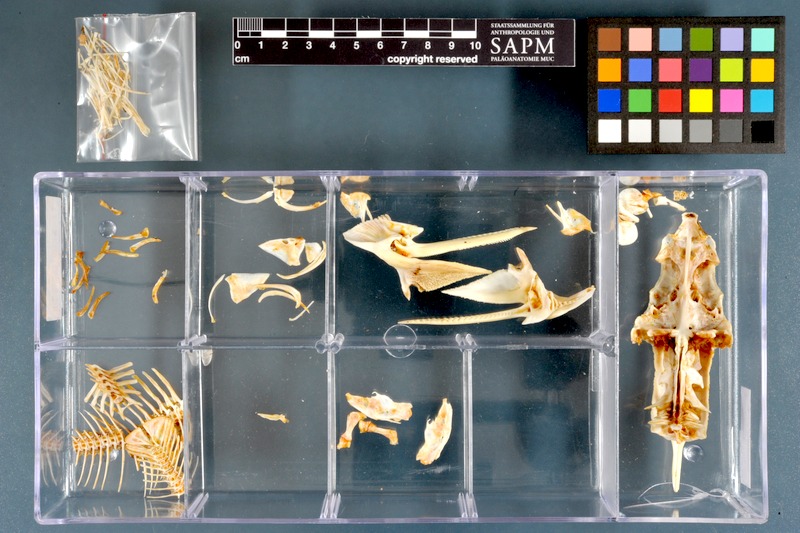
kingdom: Animalia
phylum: Chordata
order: Siluriformes
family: Mochokidae
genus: Synodontis
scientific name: Synodontis schall
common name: Wahrindi
